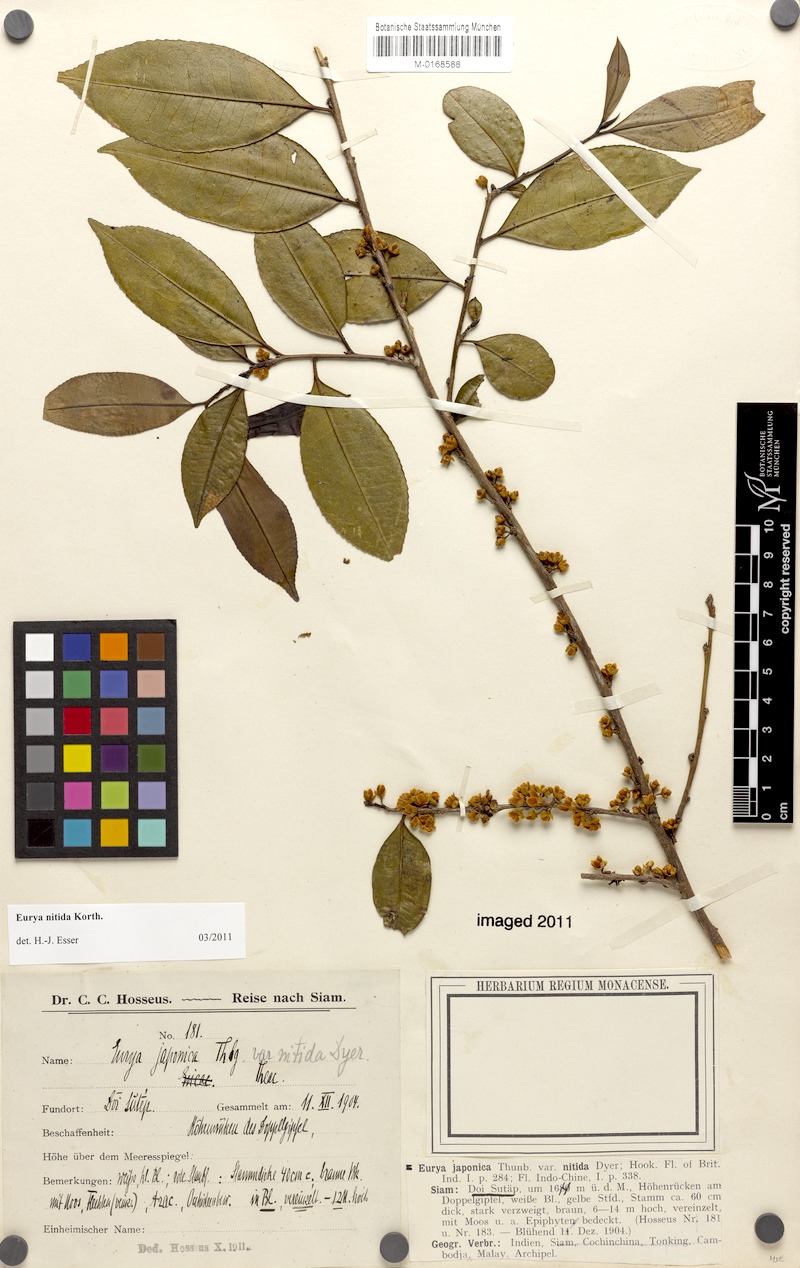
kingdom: Plantae
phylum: Tracheophyta
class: Magnoliopsida
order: Ericales
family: Pentaphylacaceae
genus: Eurya
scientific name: Eurya nitida
